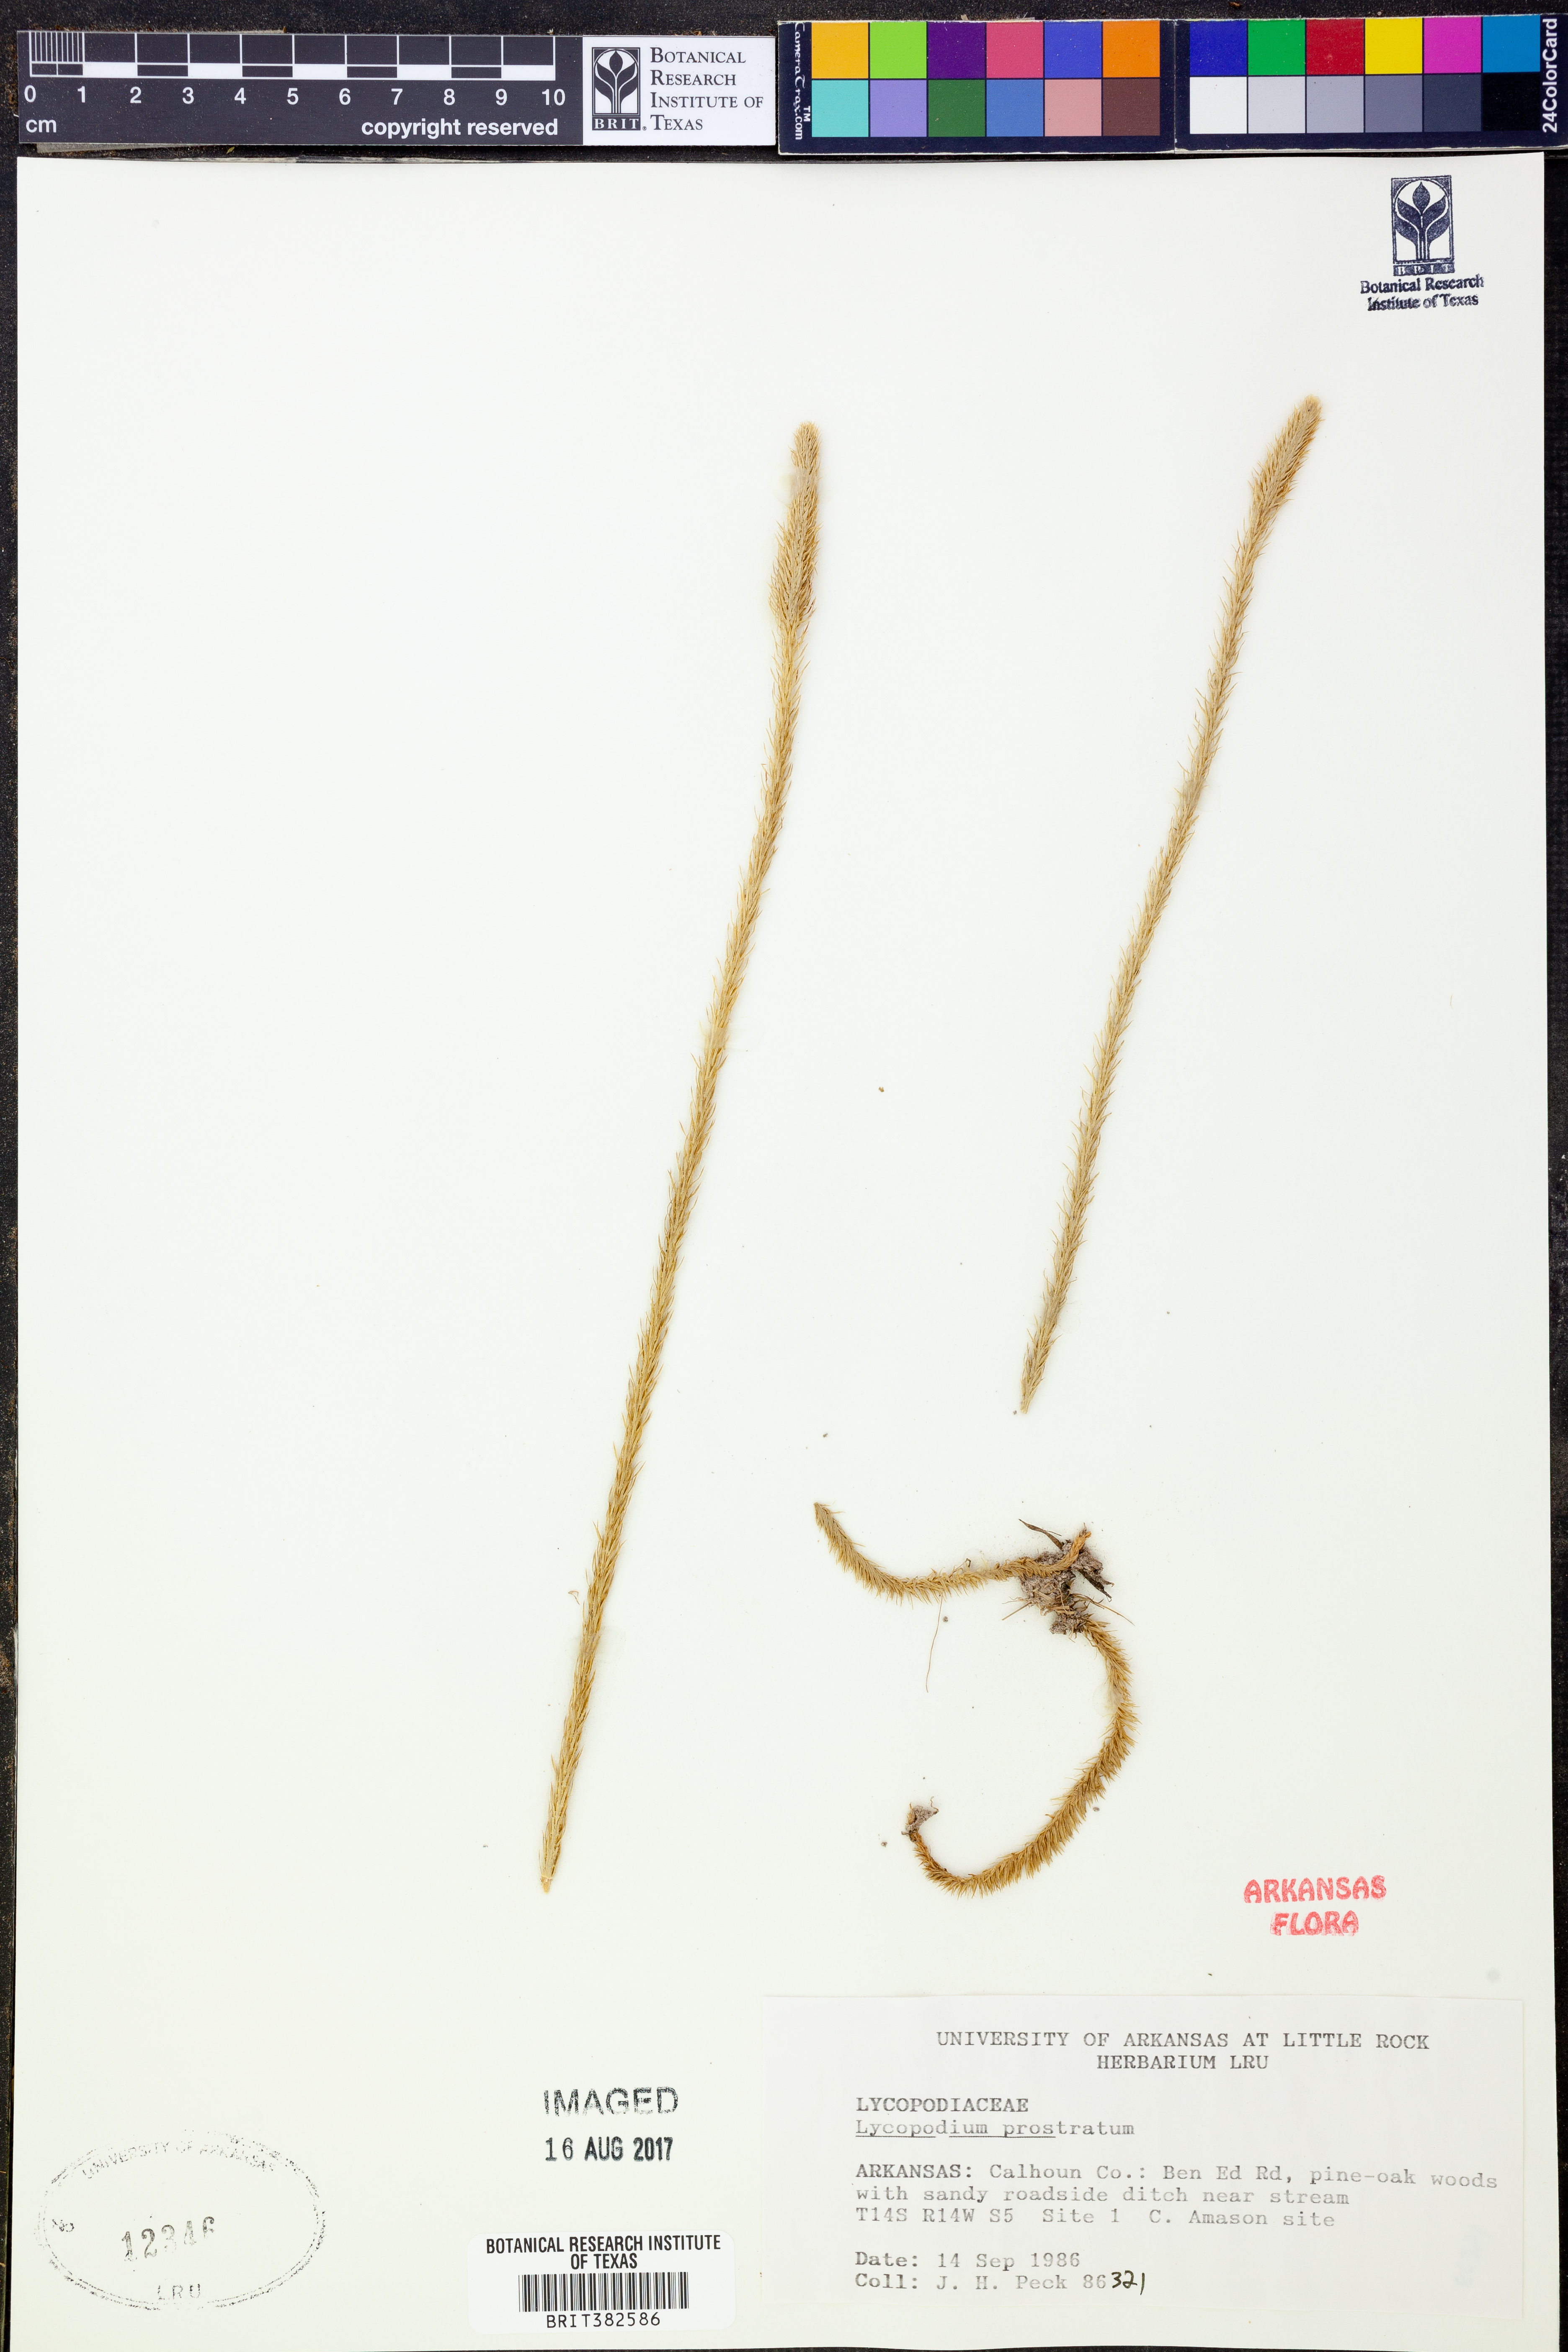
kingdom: Plantae
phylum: Tracheophyta
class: Lycopodiopsida
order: Lycopodiales
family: Lycopodiaceae
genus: Lycopodiella
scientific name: Lycopodiella prostrata
